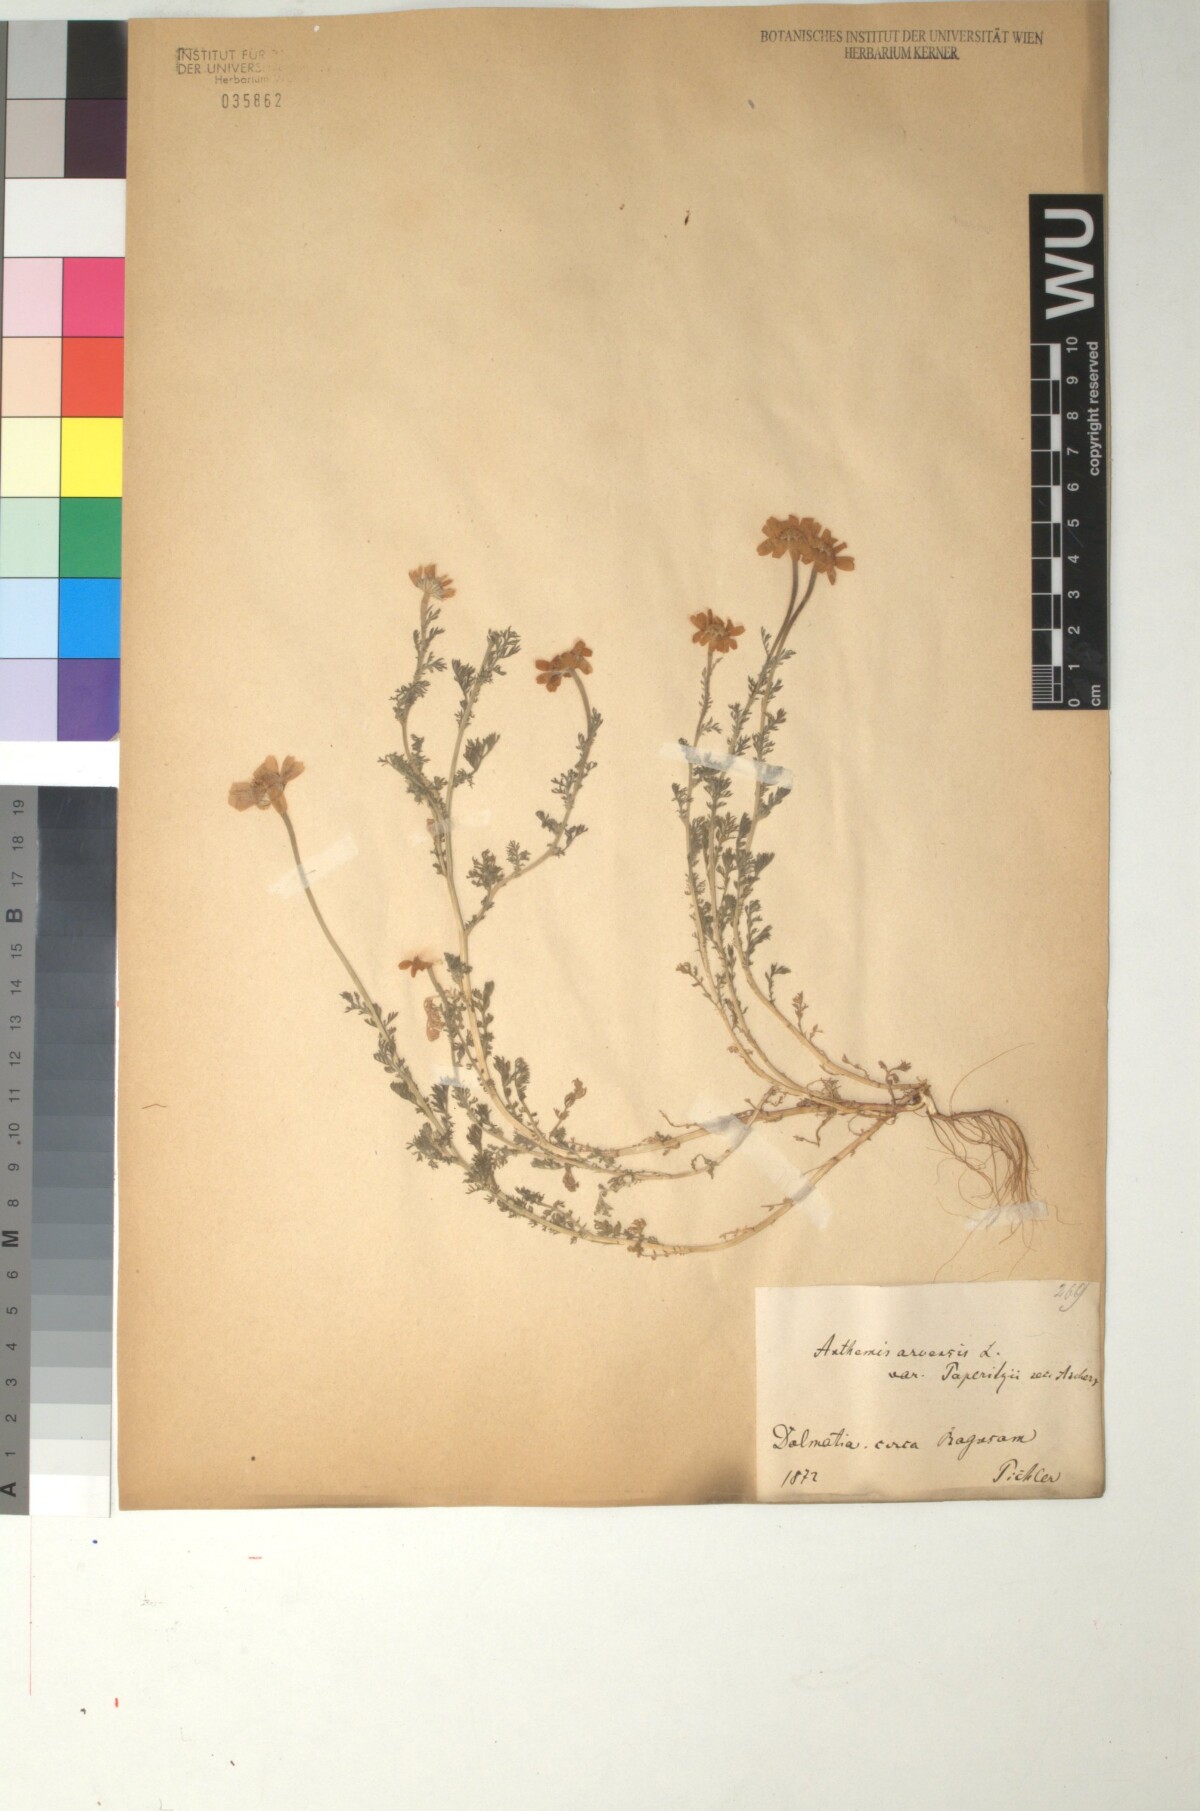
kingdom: Plantae
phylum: Tracheophyta
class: Magnoliopsida
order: Asterales
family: Asteraceae
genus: Anthemis
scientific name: Anthemis arvensis
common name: Corn chamomile
